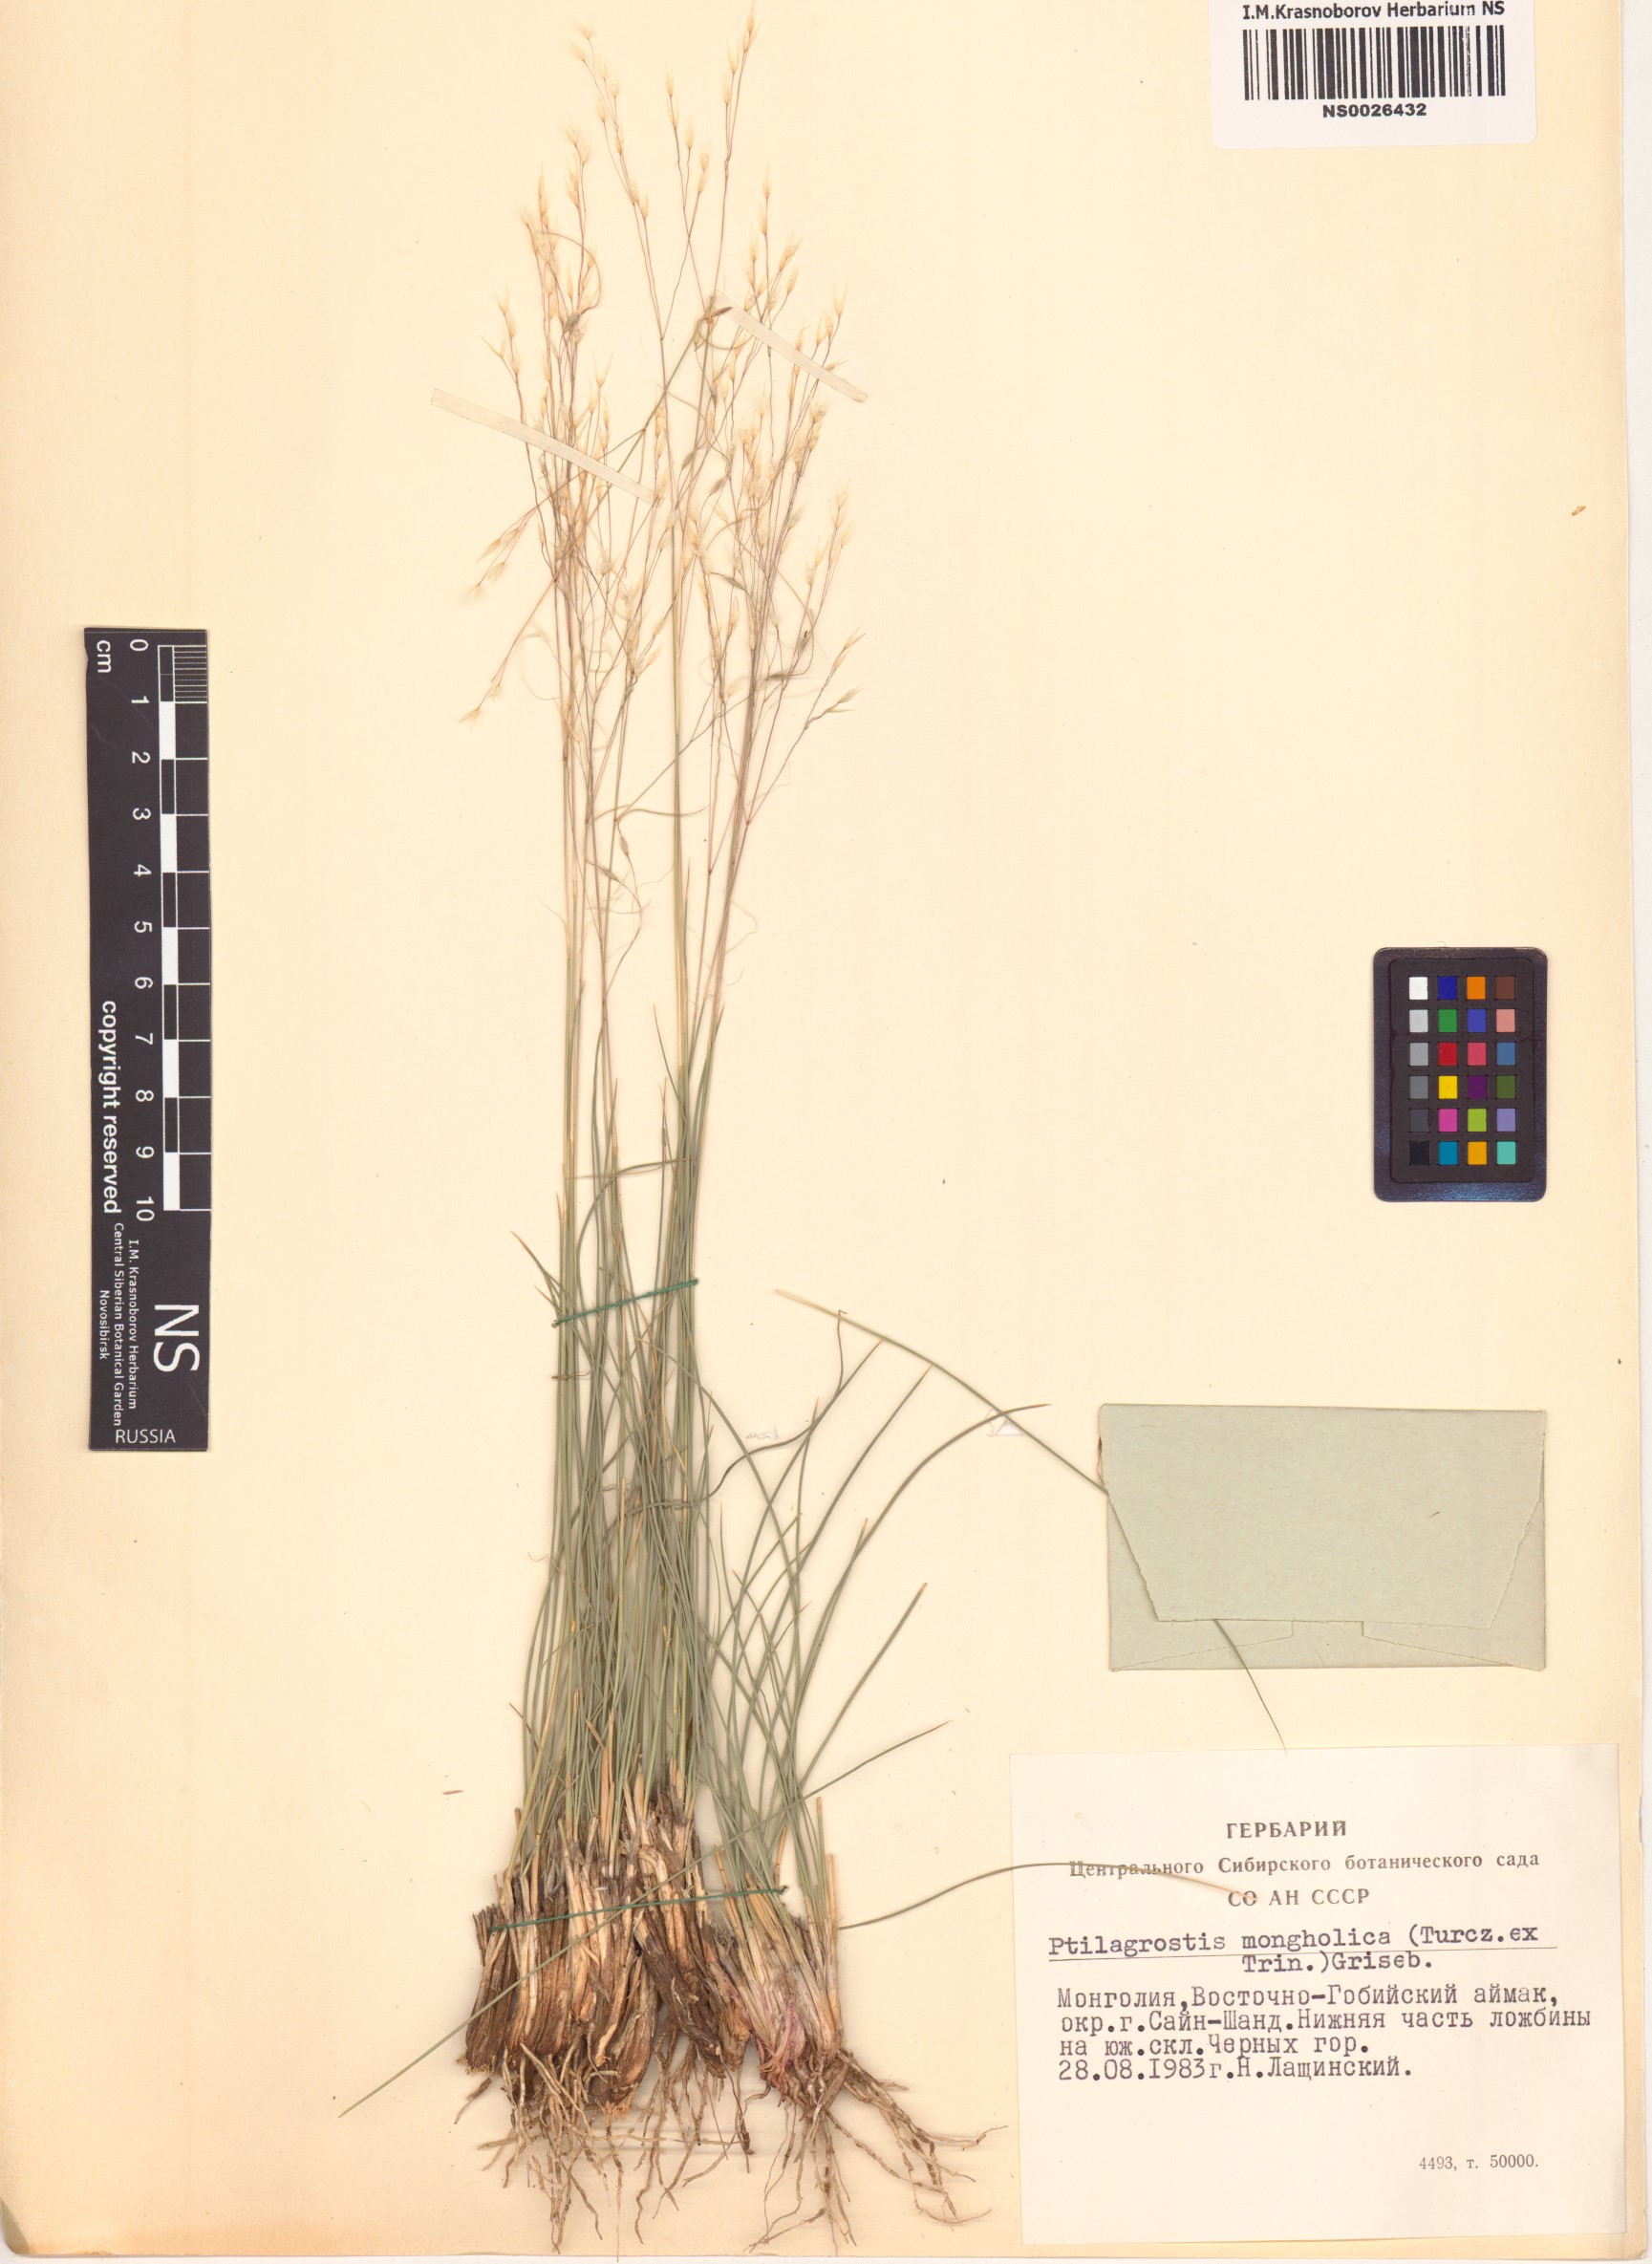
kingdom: Plantae
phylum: Tracheophyta
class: Liliopsida
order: Poales
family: Poaceae
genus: Ptilagrostis
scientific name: Ptilagrostis mongholica
